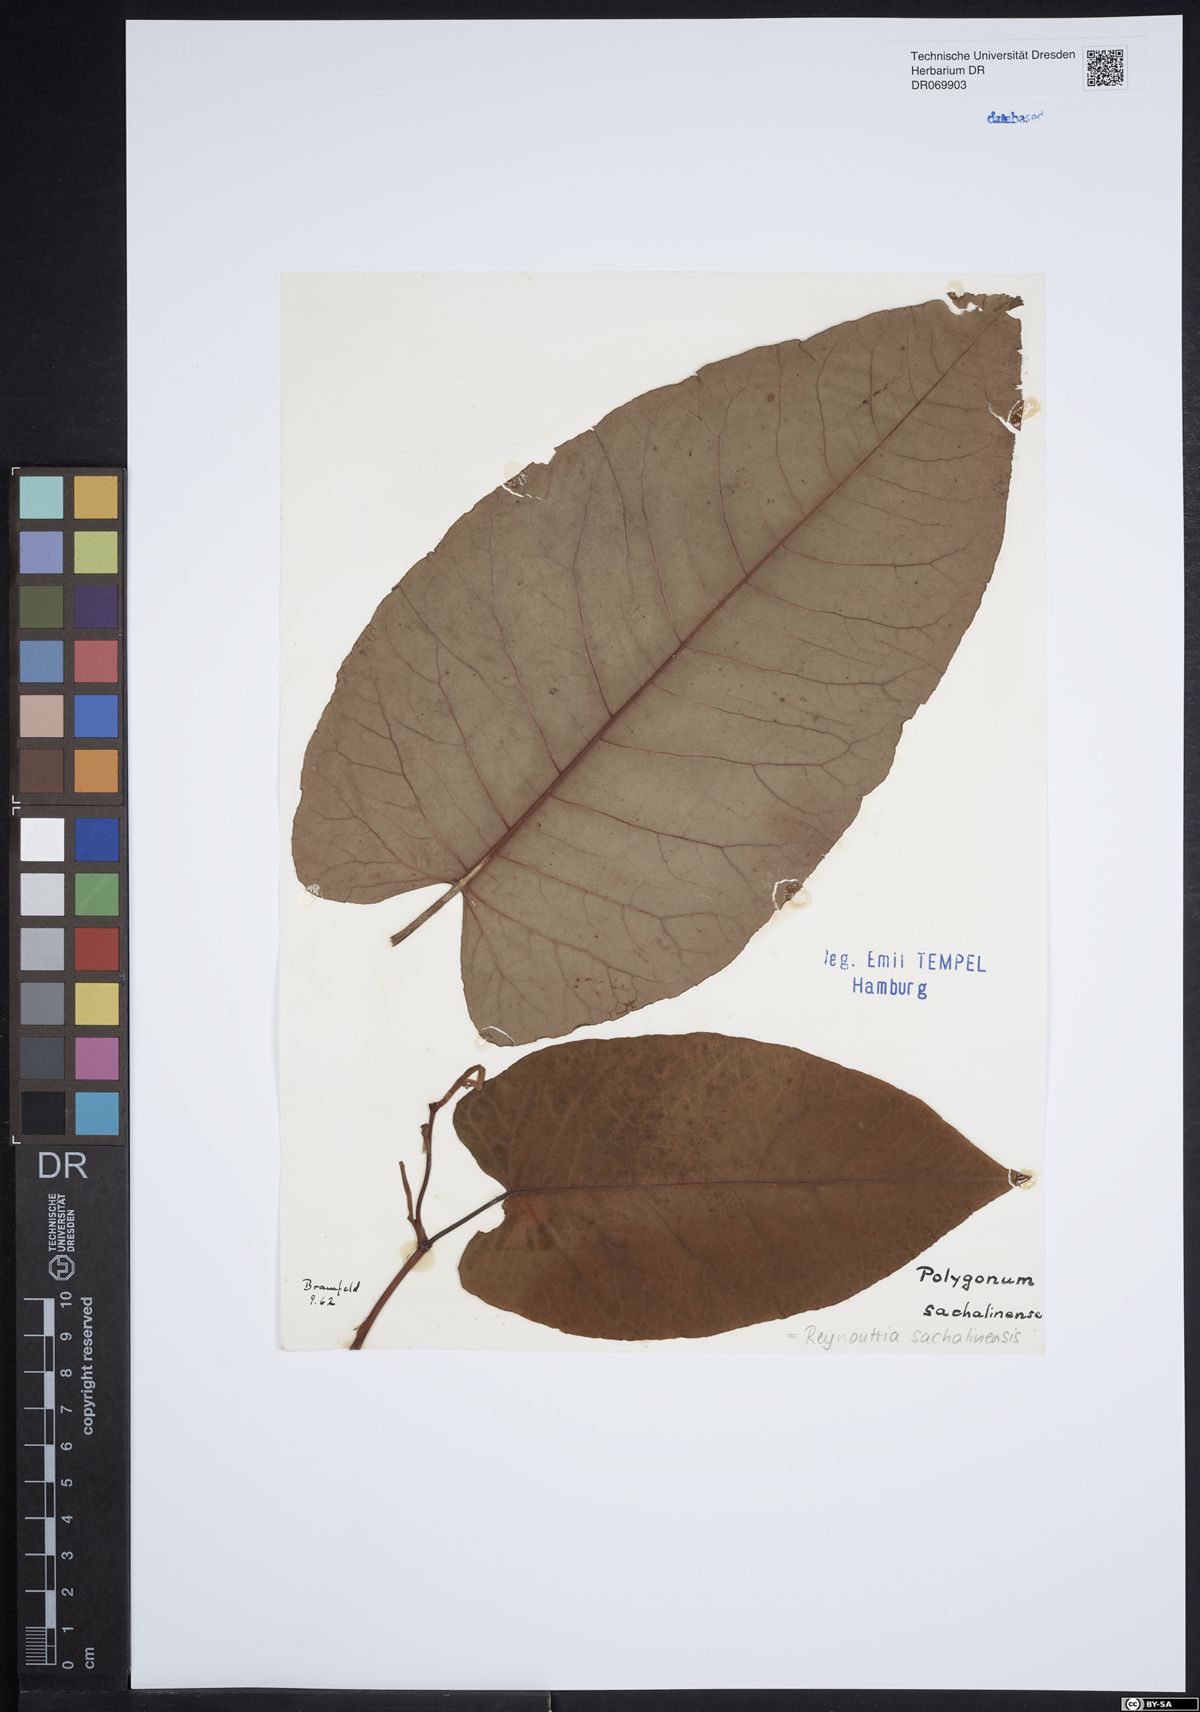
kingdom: Plantae
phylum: Tracheophyta
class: Magnoliopsida
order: Caryophyllales
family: Polygonaceae
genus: Reynoutria
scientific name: Reynoutria sachalinensis
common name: Giant knotweed
